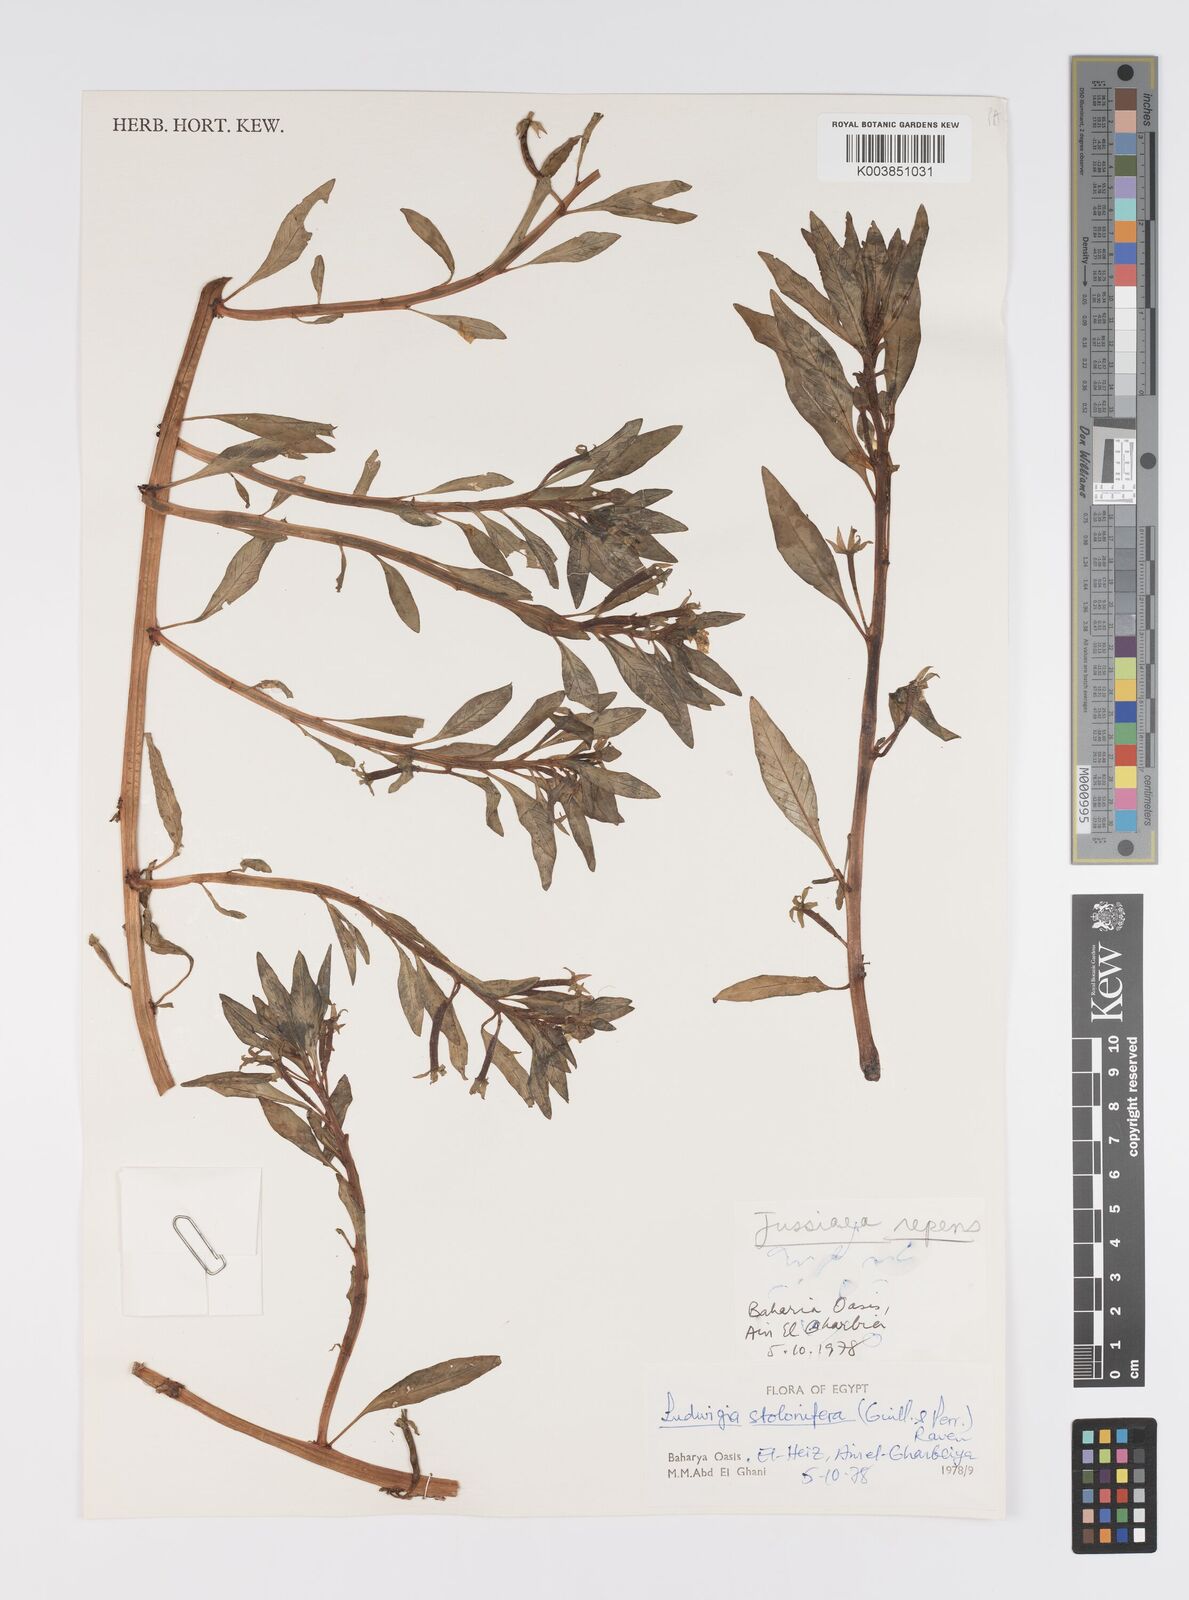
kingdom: Plantae
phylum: Tracheophyta
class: Magnoliopsida
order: Myrtales
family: Onagraceae
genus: Ludwigia
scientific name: Ludwigia adscendens
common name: Creeping water primrose
